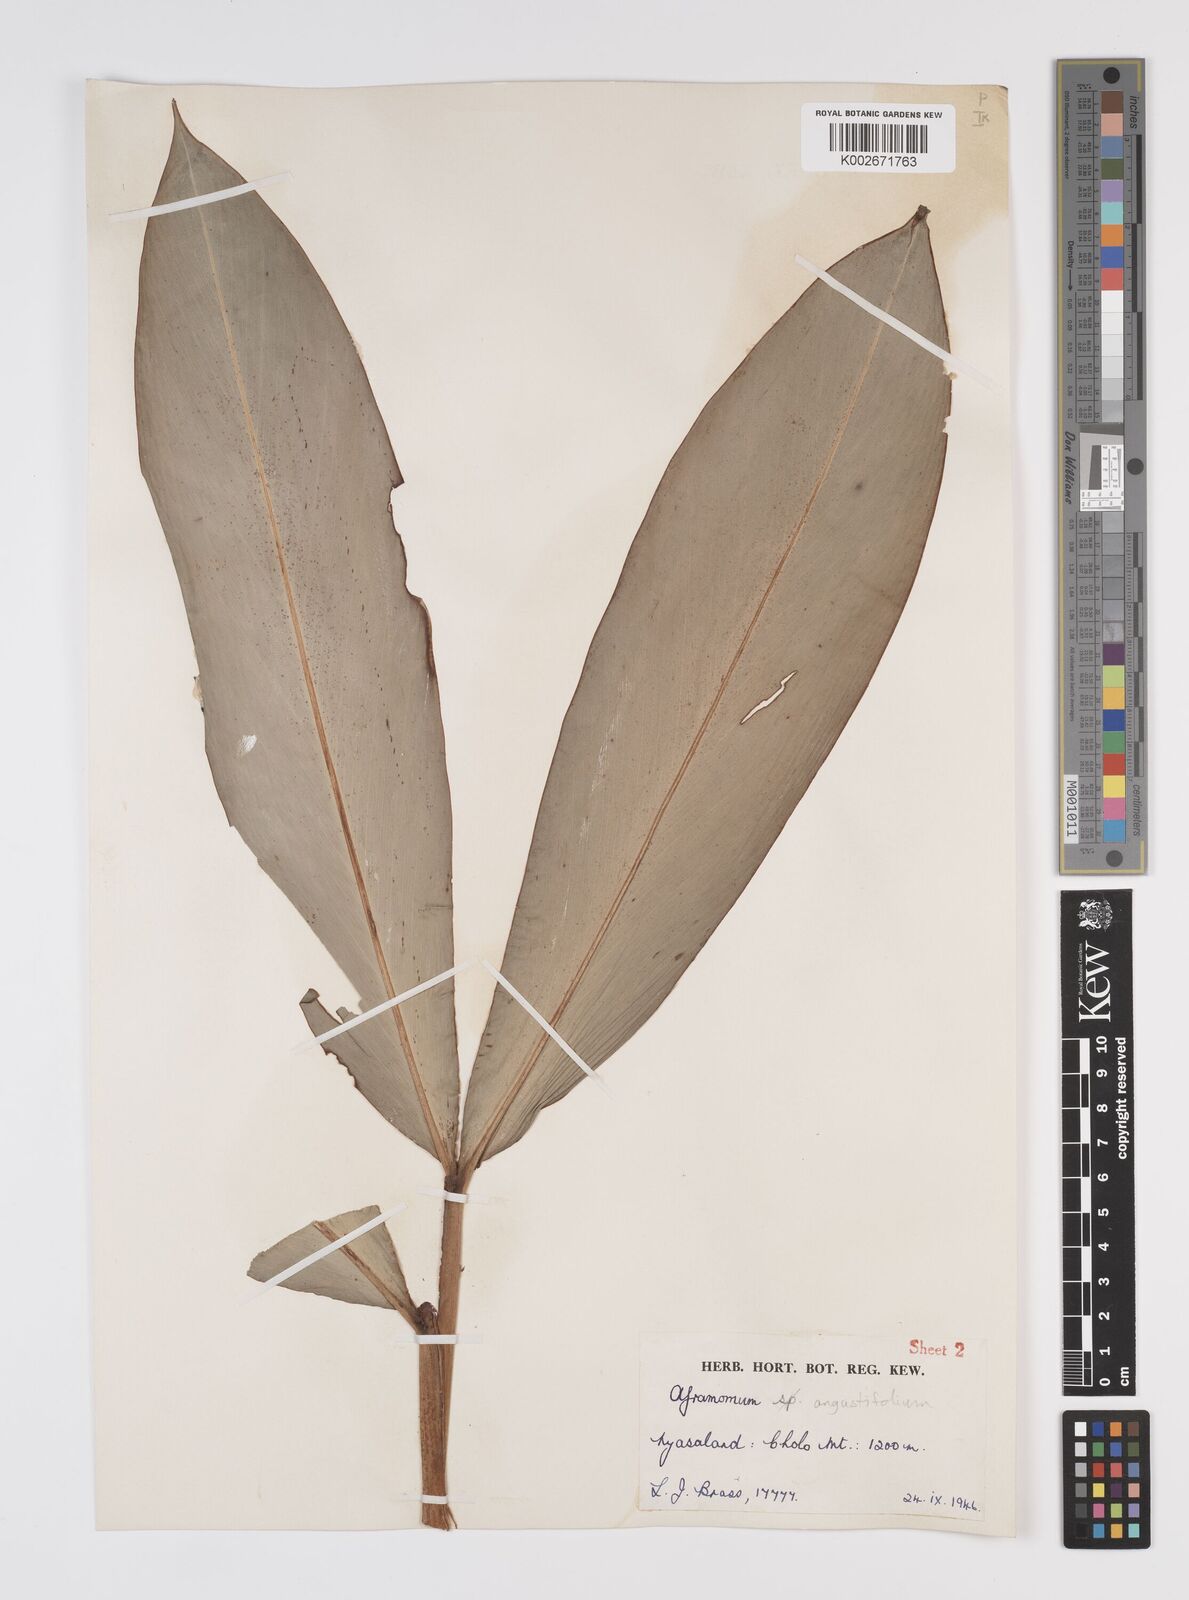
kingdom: Plantae
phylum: Tracheophyta
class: Liliopsida
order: Zingiberales
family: Zingiberaceae
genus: Aframomum
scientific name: Aframomum albiflorum
